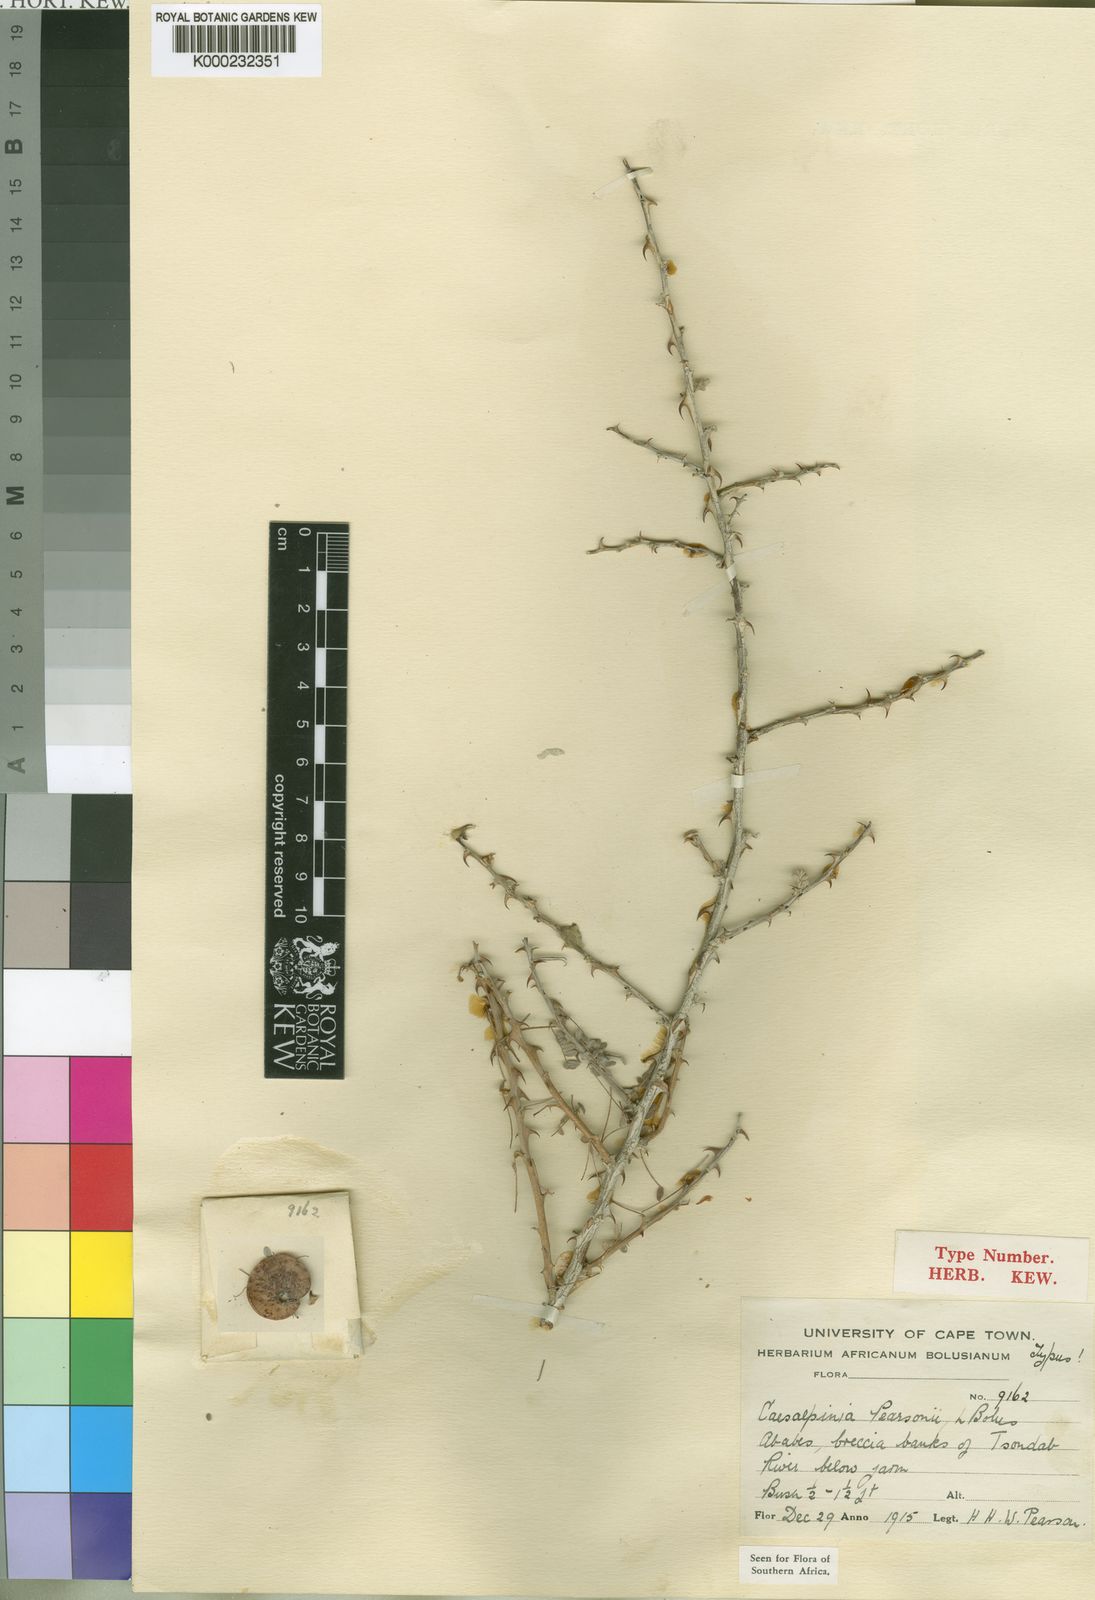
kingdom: Plantae
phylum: Tracheophyta
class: Magnoliopsida
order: Fabales
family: Fabaceae
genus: Hererolandia
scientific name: Hererolandia pearsonii
